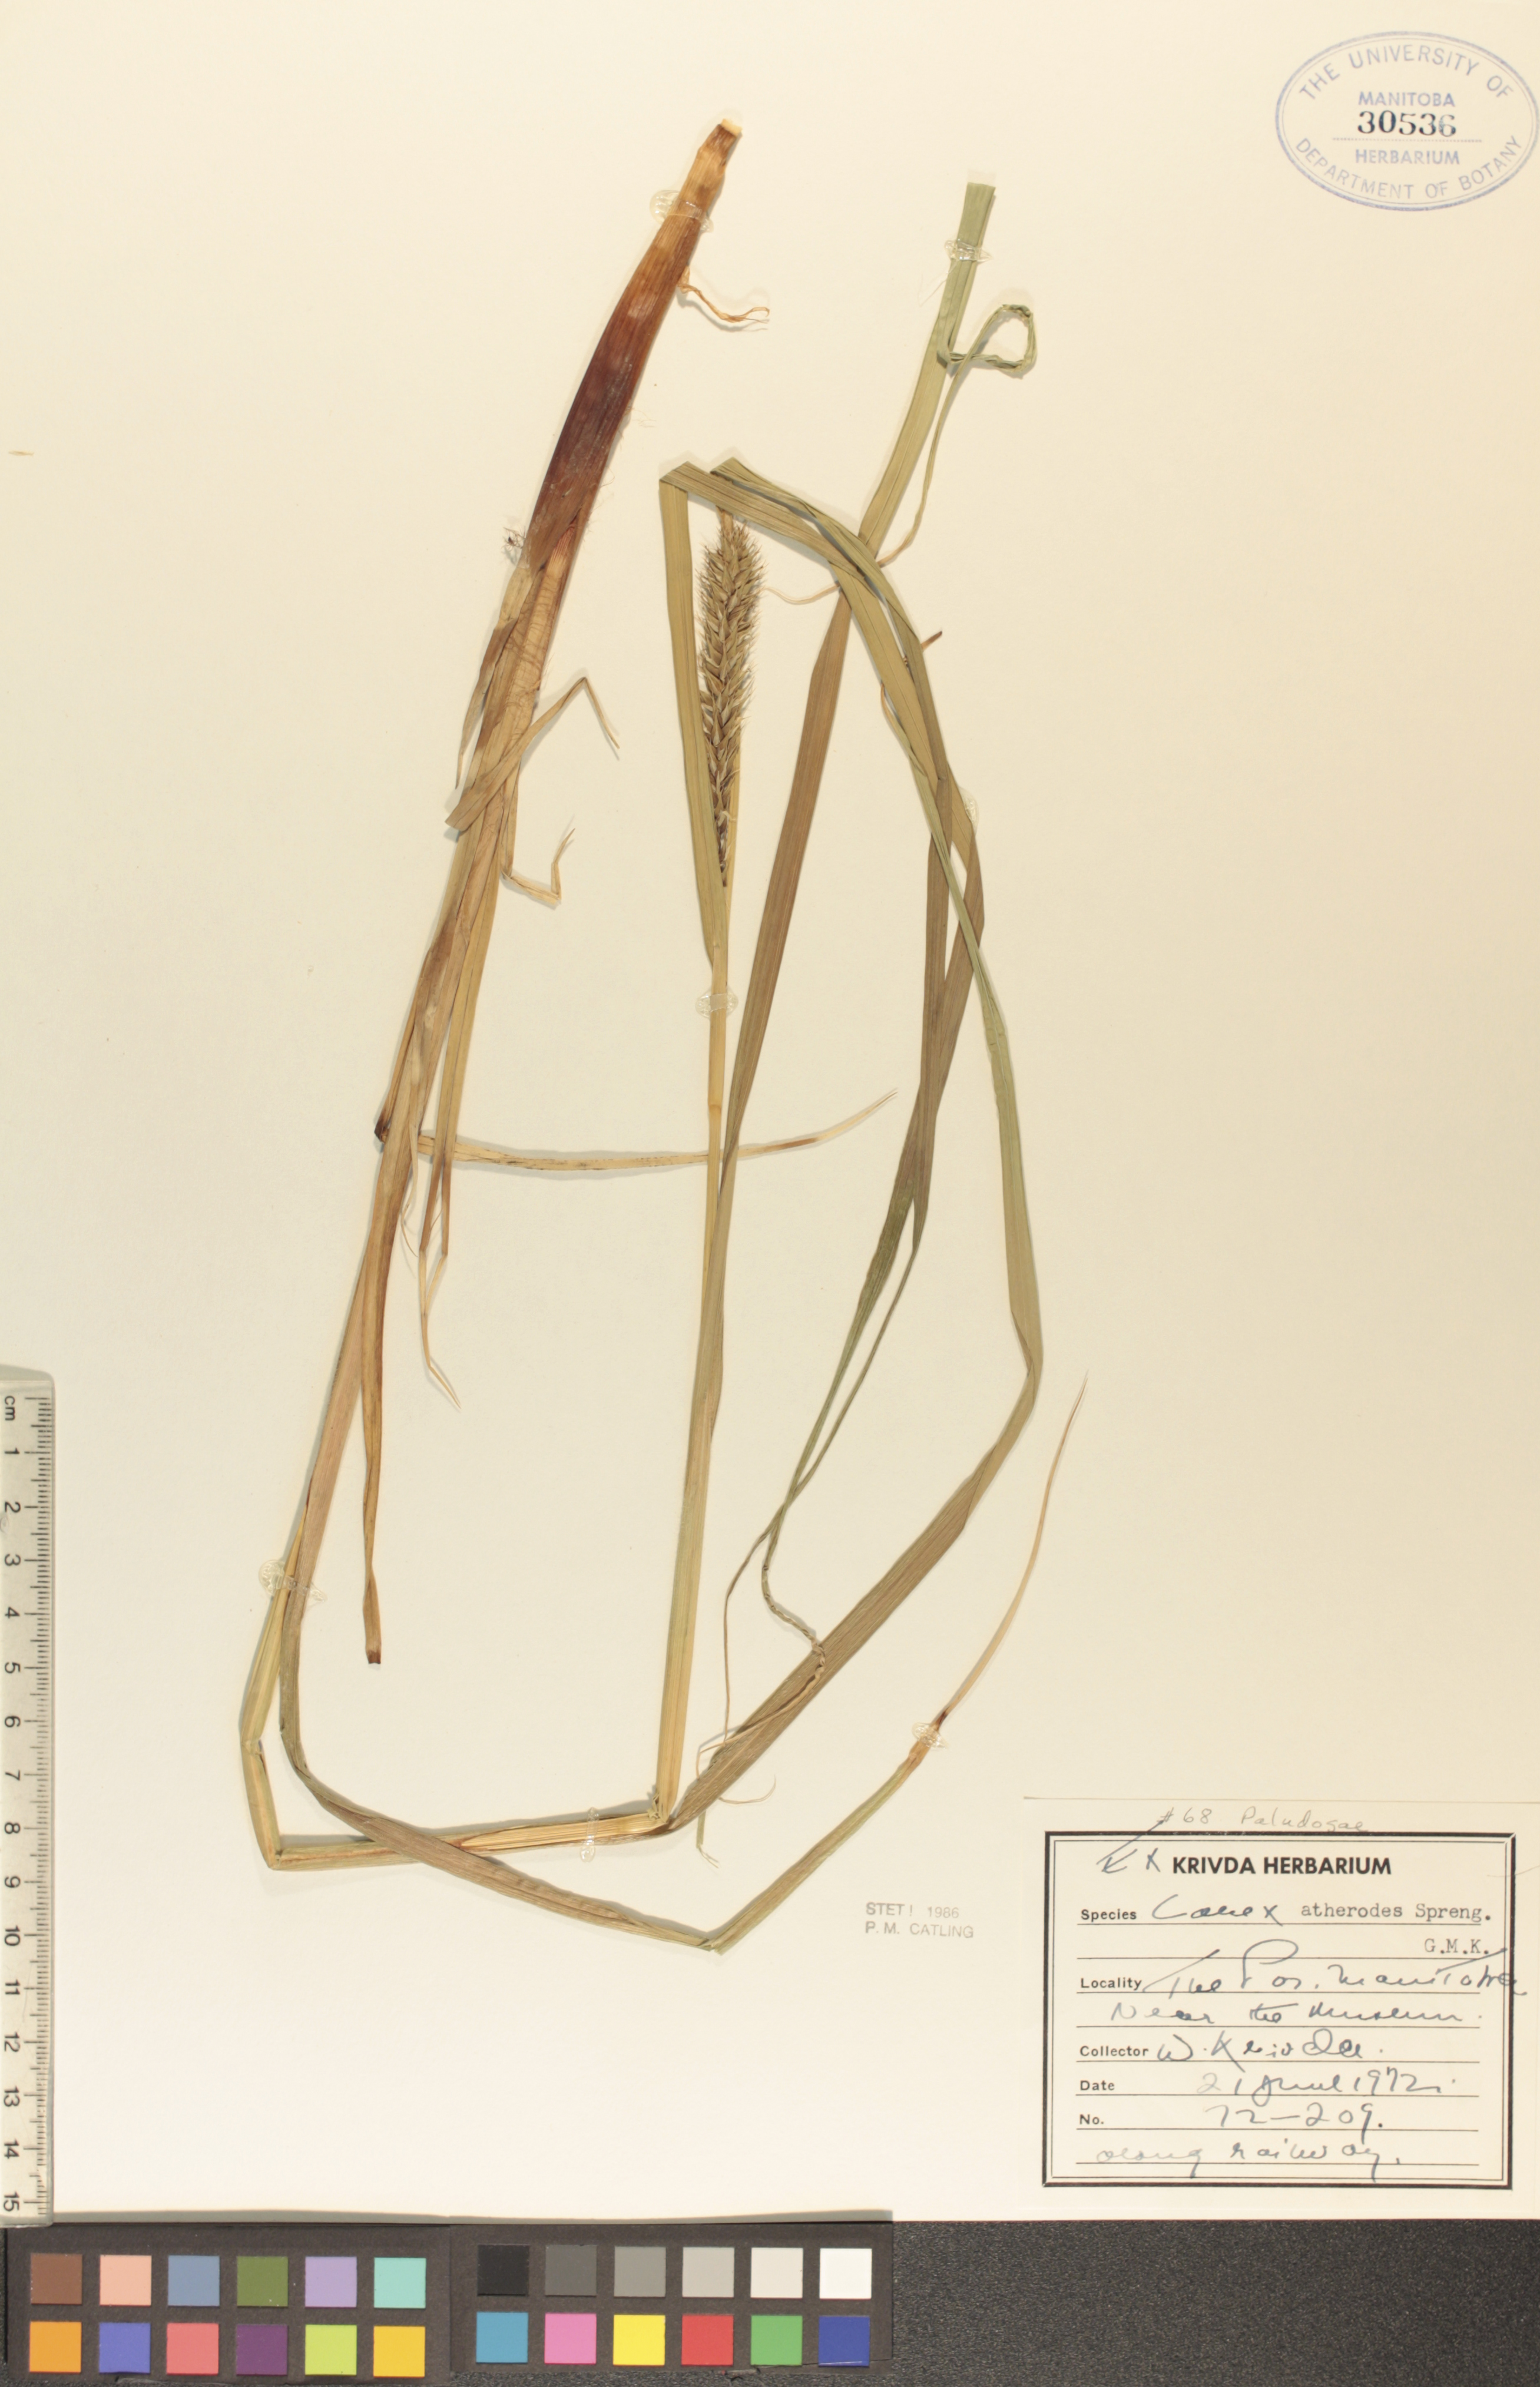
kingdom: Plantae
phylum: Tracheophyta
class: Liliopsida
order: Poales
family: Cyperaceae
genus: Carex
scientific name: Carex atherodes
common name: Wheat sedge
